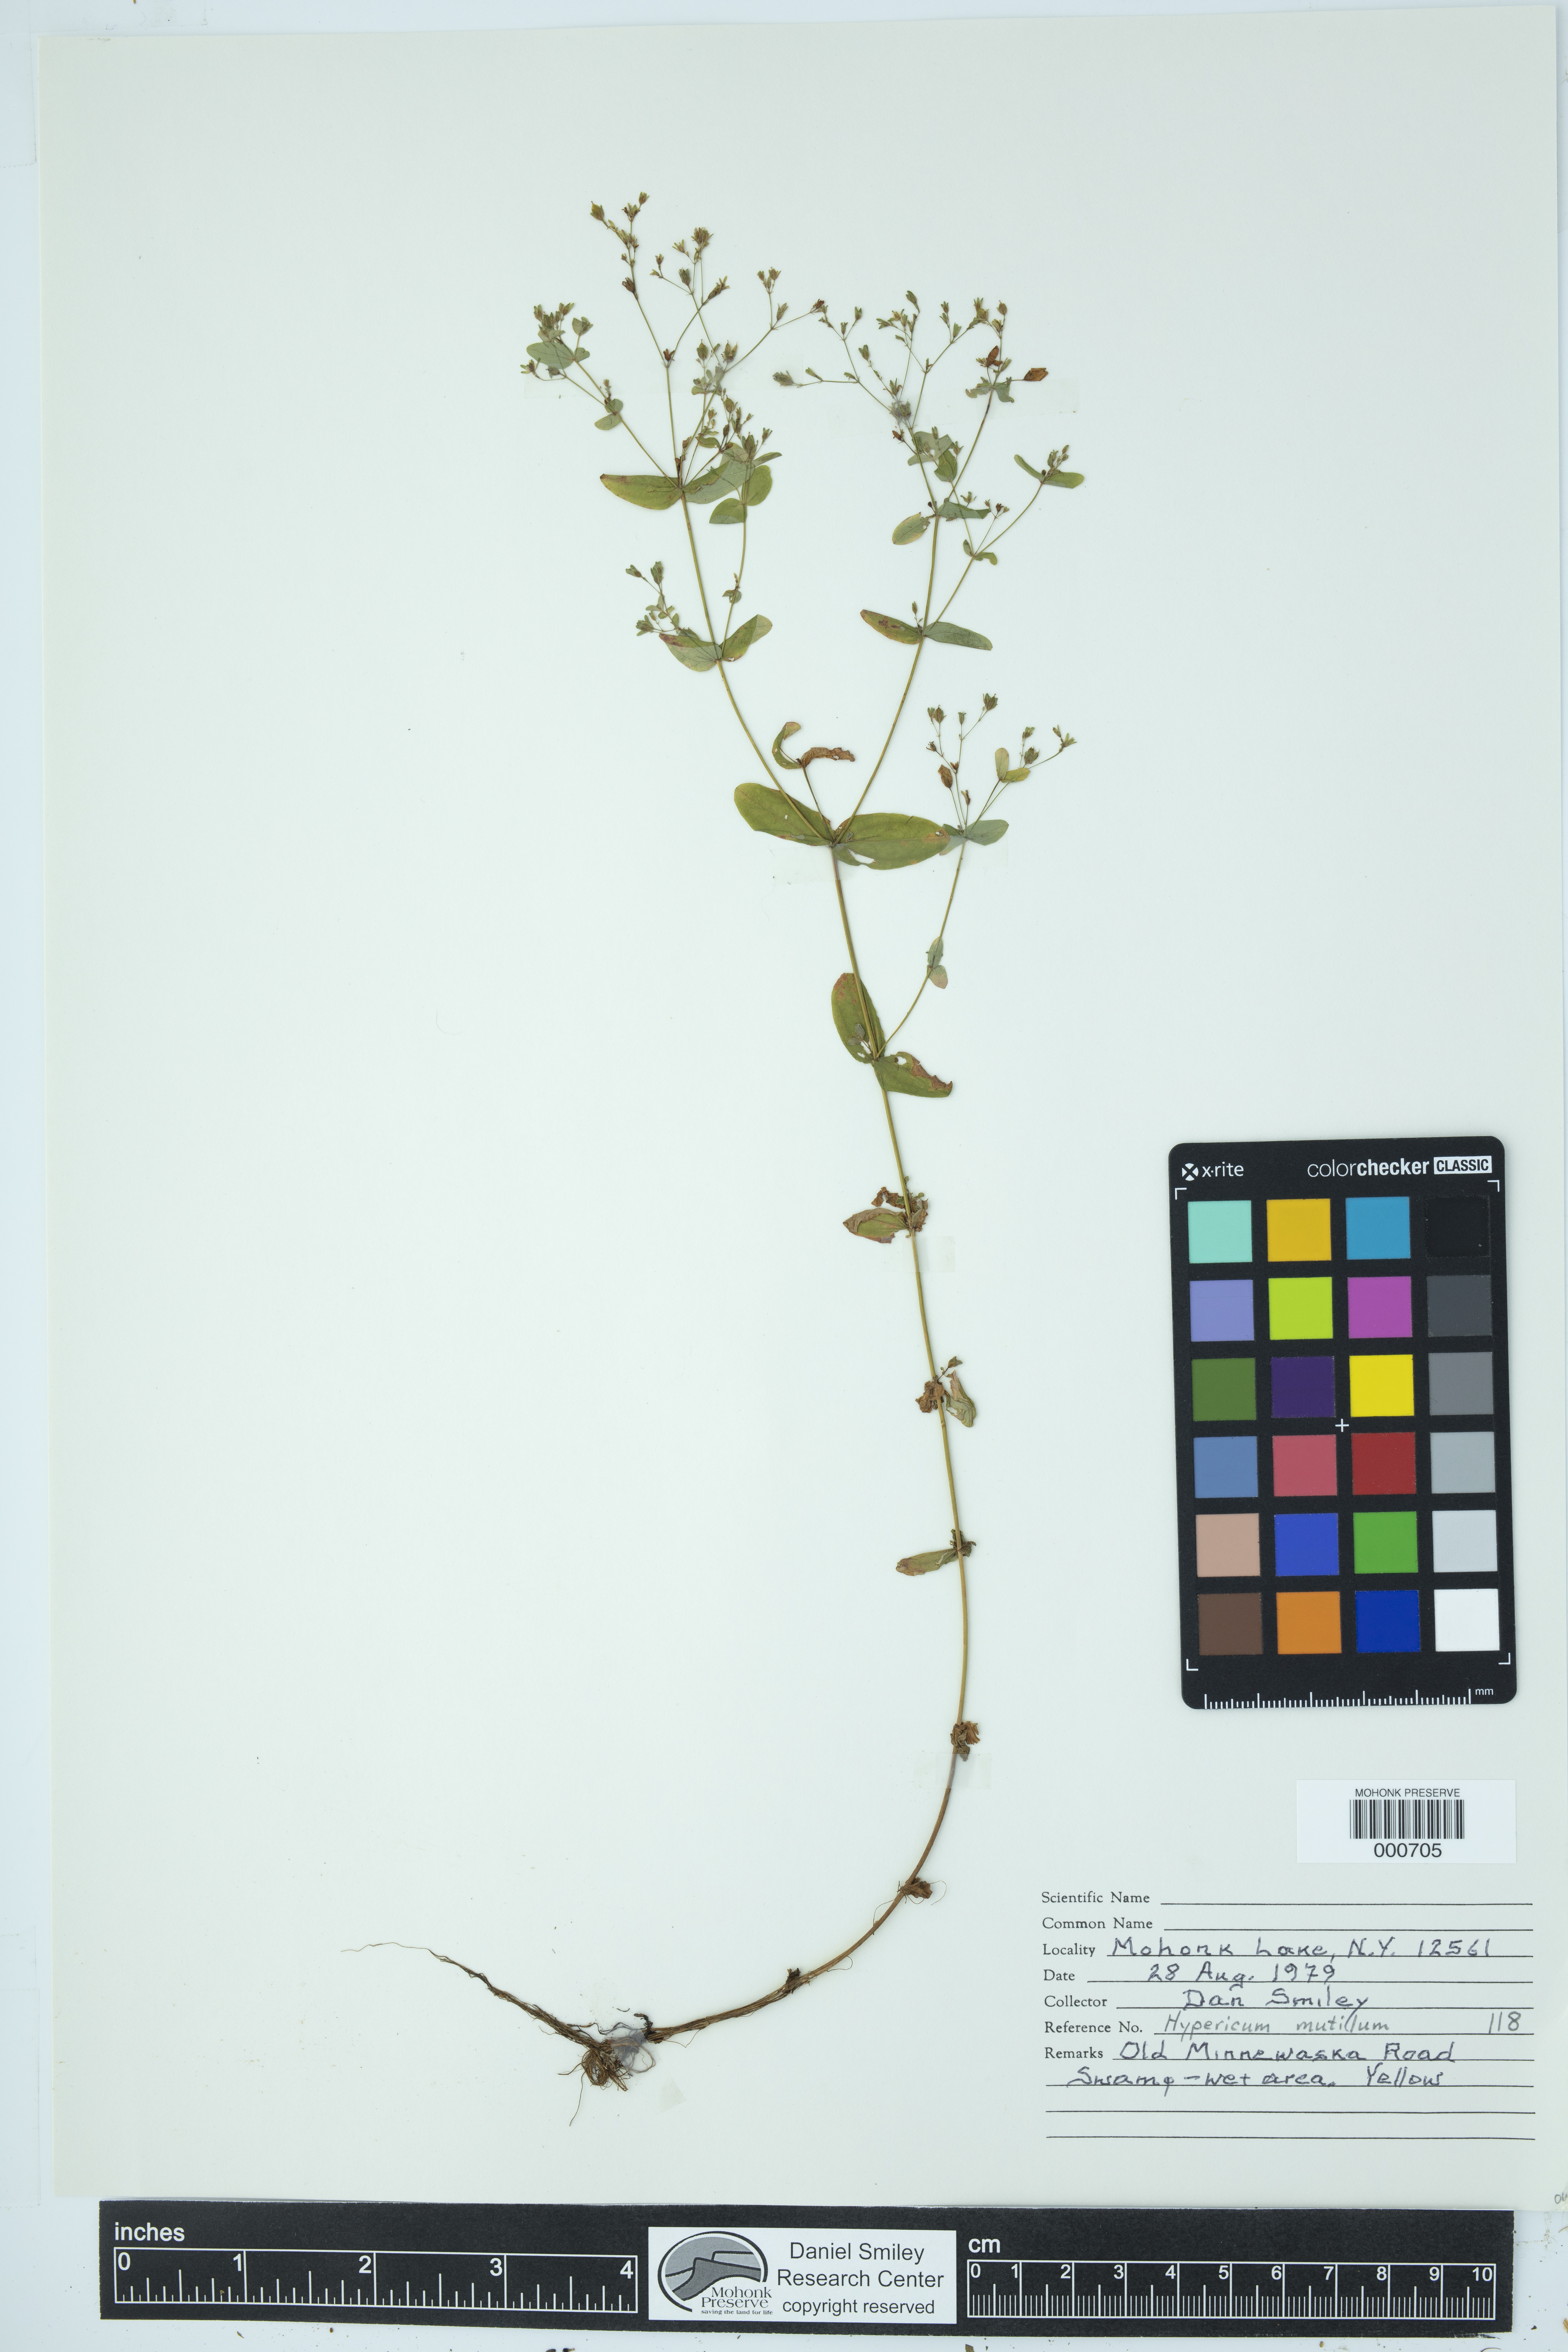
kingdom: Plantae
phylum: Tracheophyta
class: Magnoliopsida
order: Malpighiales
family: Hypericaceae
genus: Hypericum
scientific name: Hypericum mutilum
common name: Dwarf st. john's-wort
